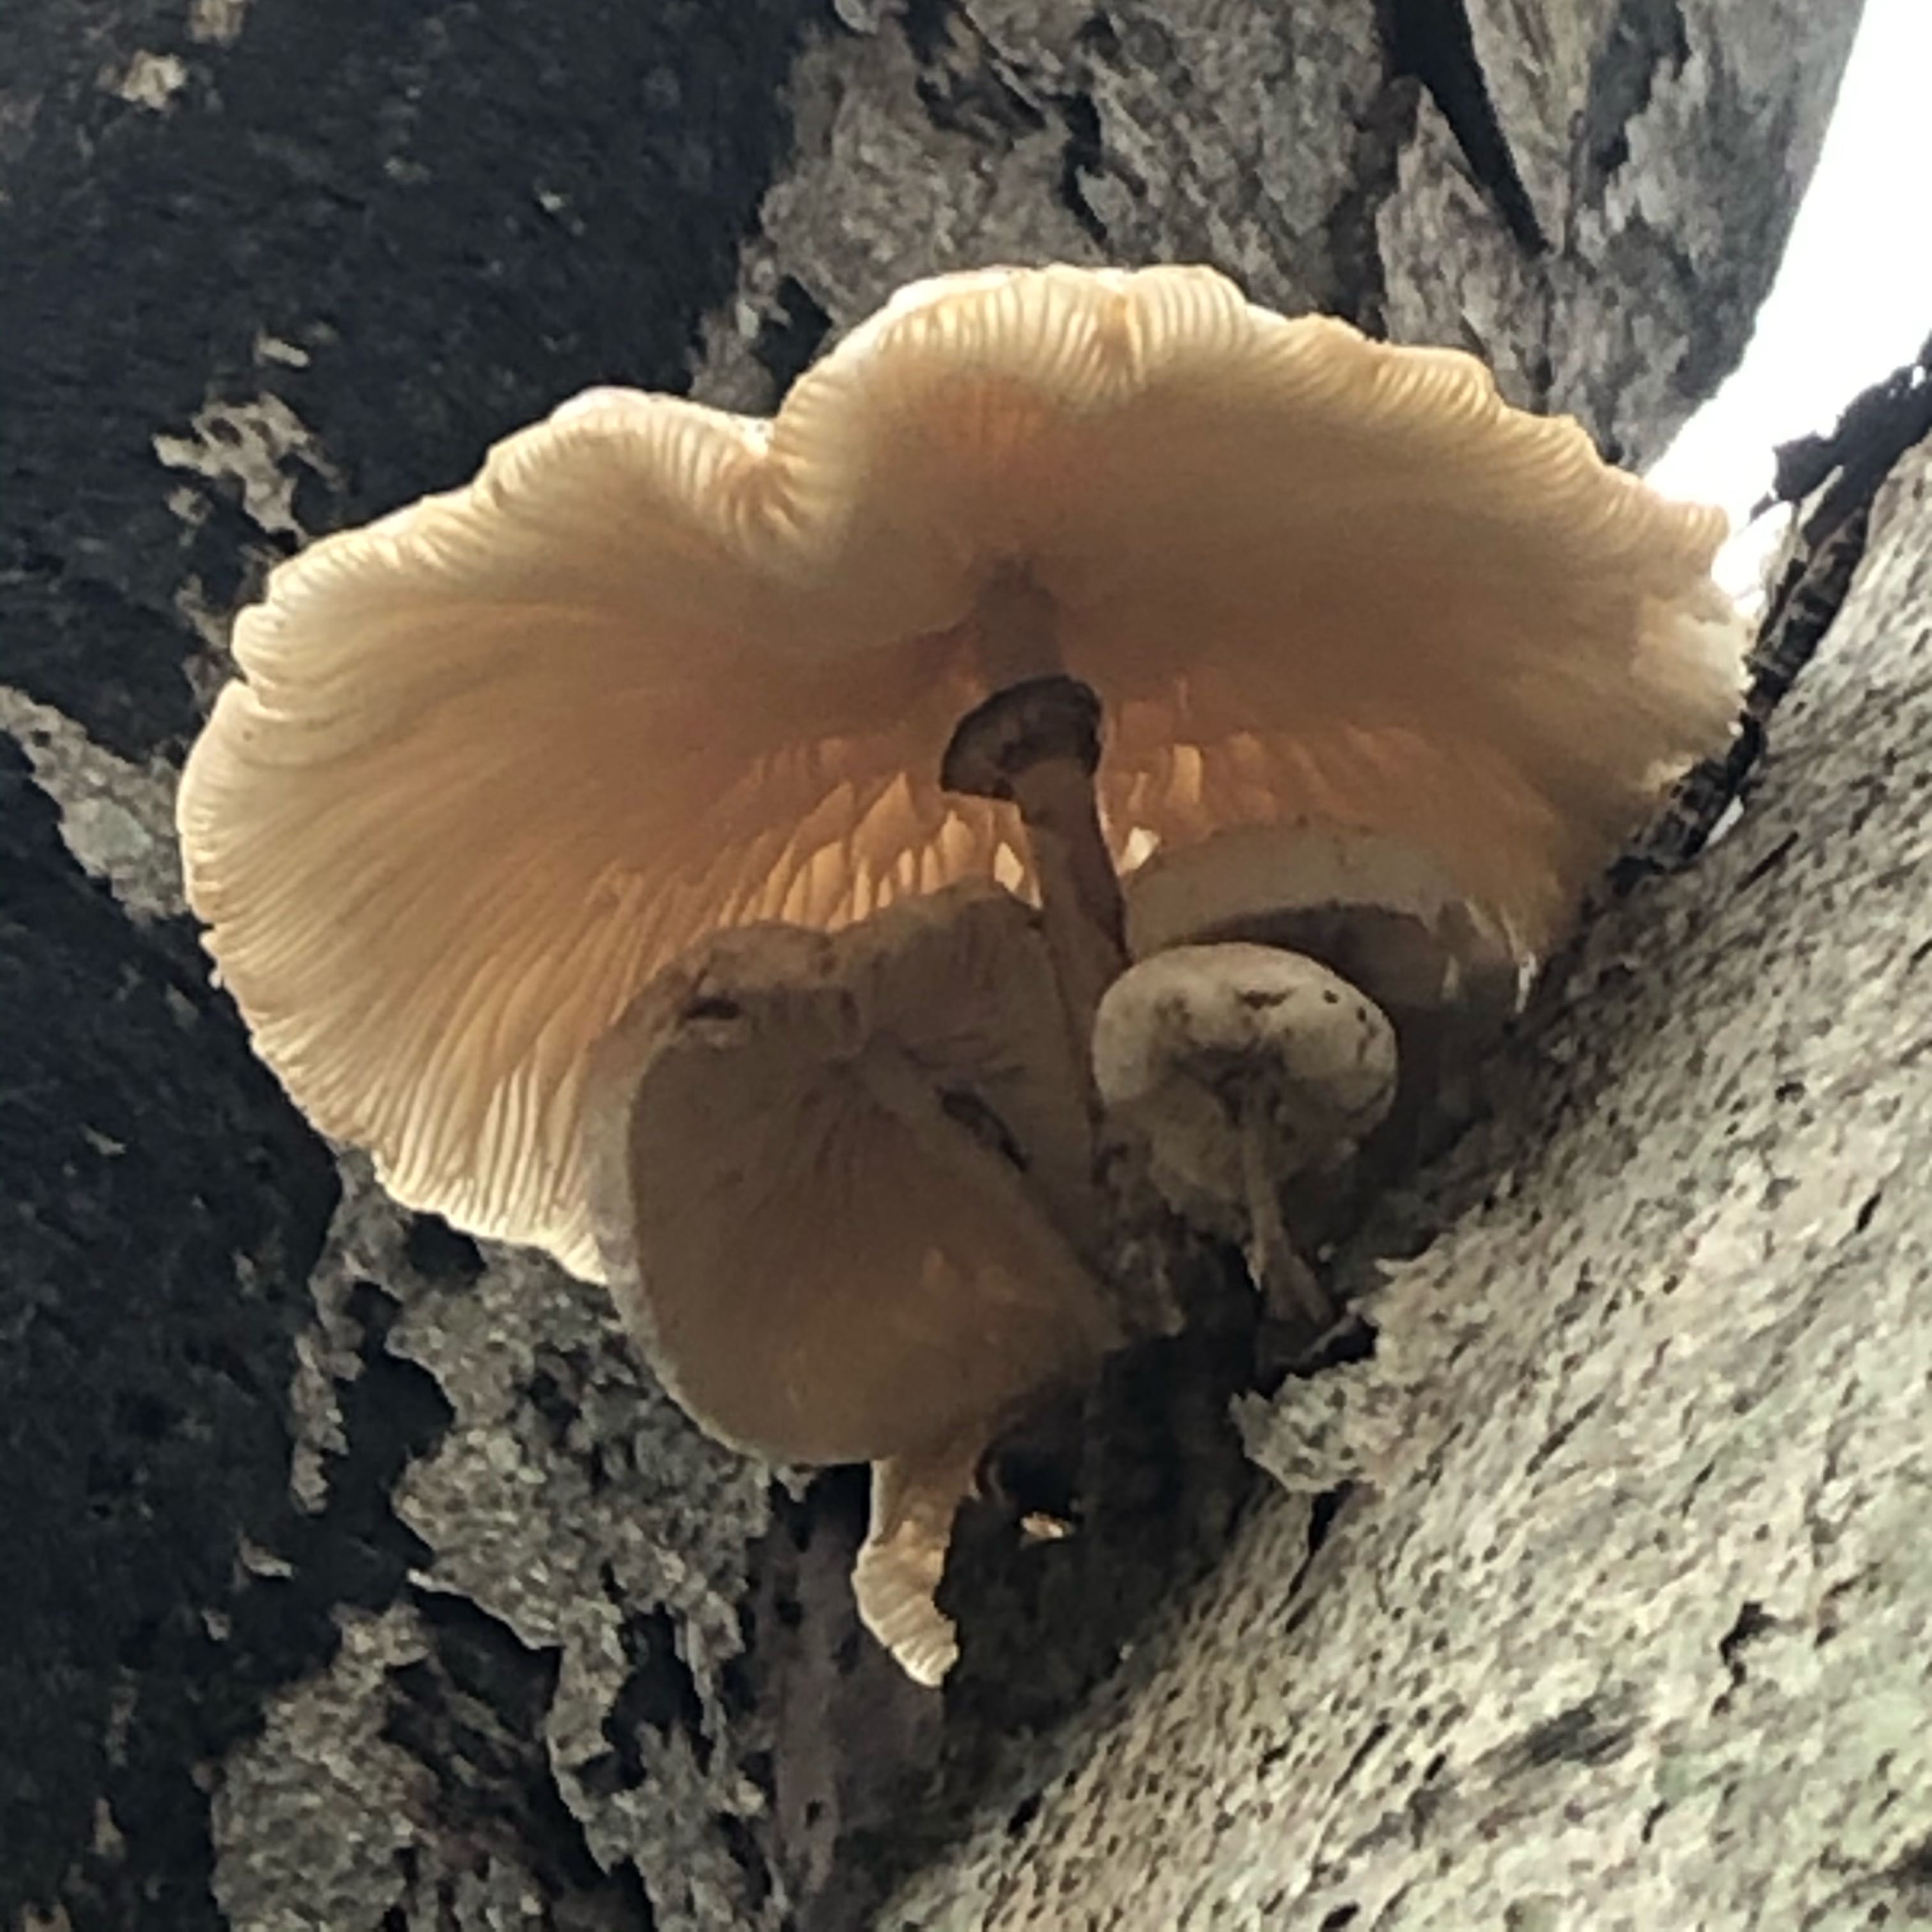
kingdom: Fungi
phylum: Basidiomycota
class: Agaricomycetes
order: Agaricales
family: Physalacriaceae
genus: Mucidula
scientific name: Mucidula mucida
